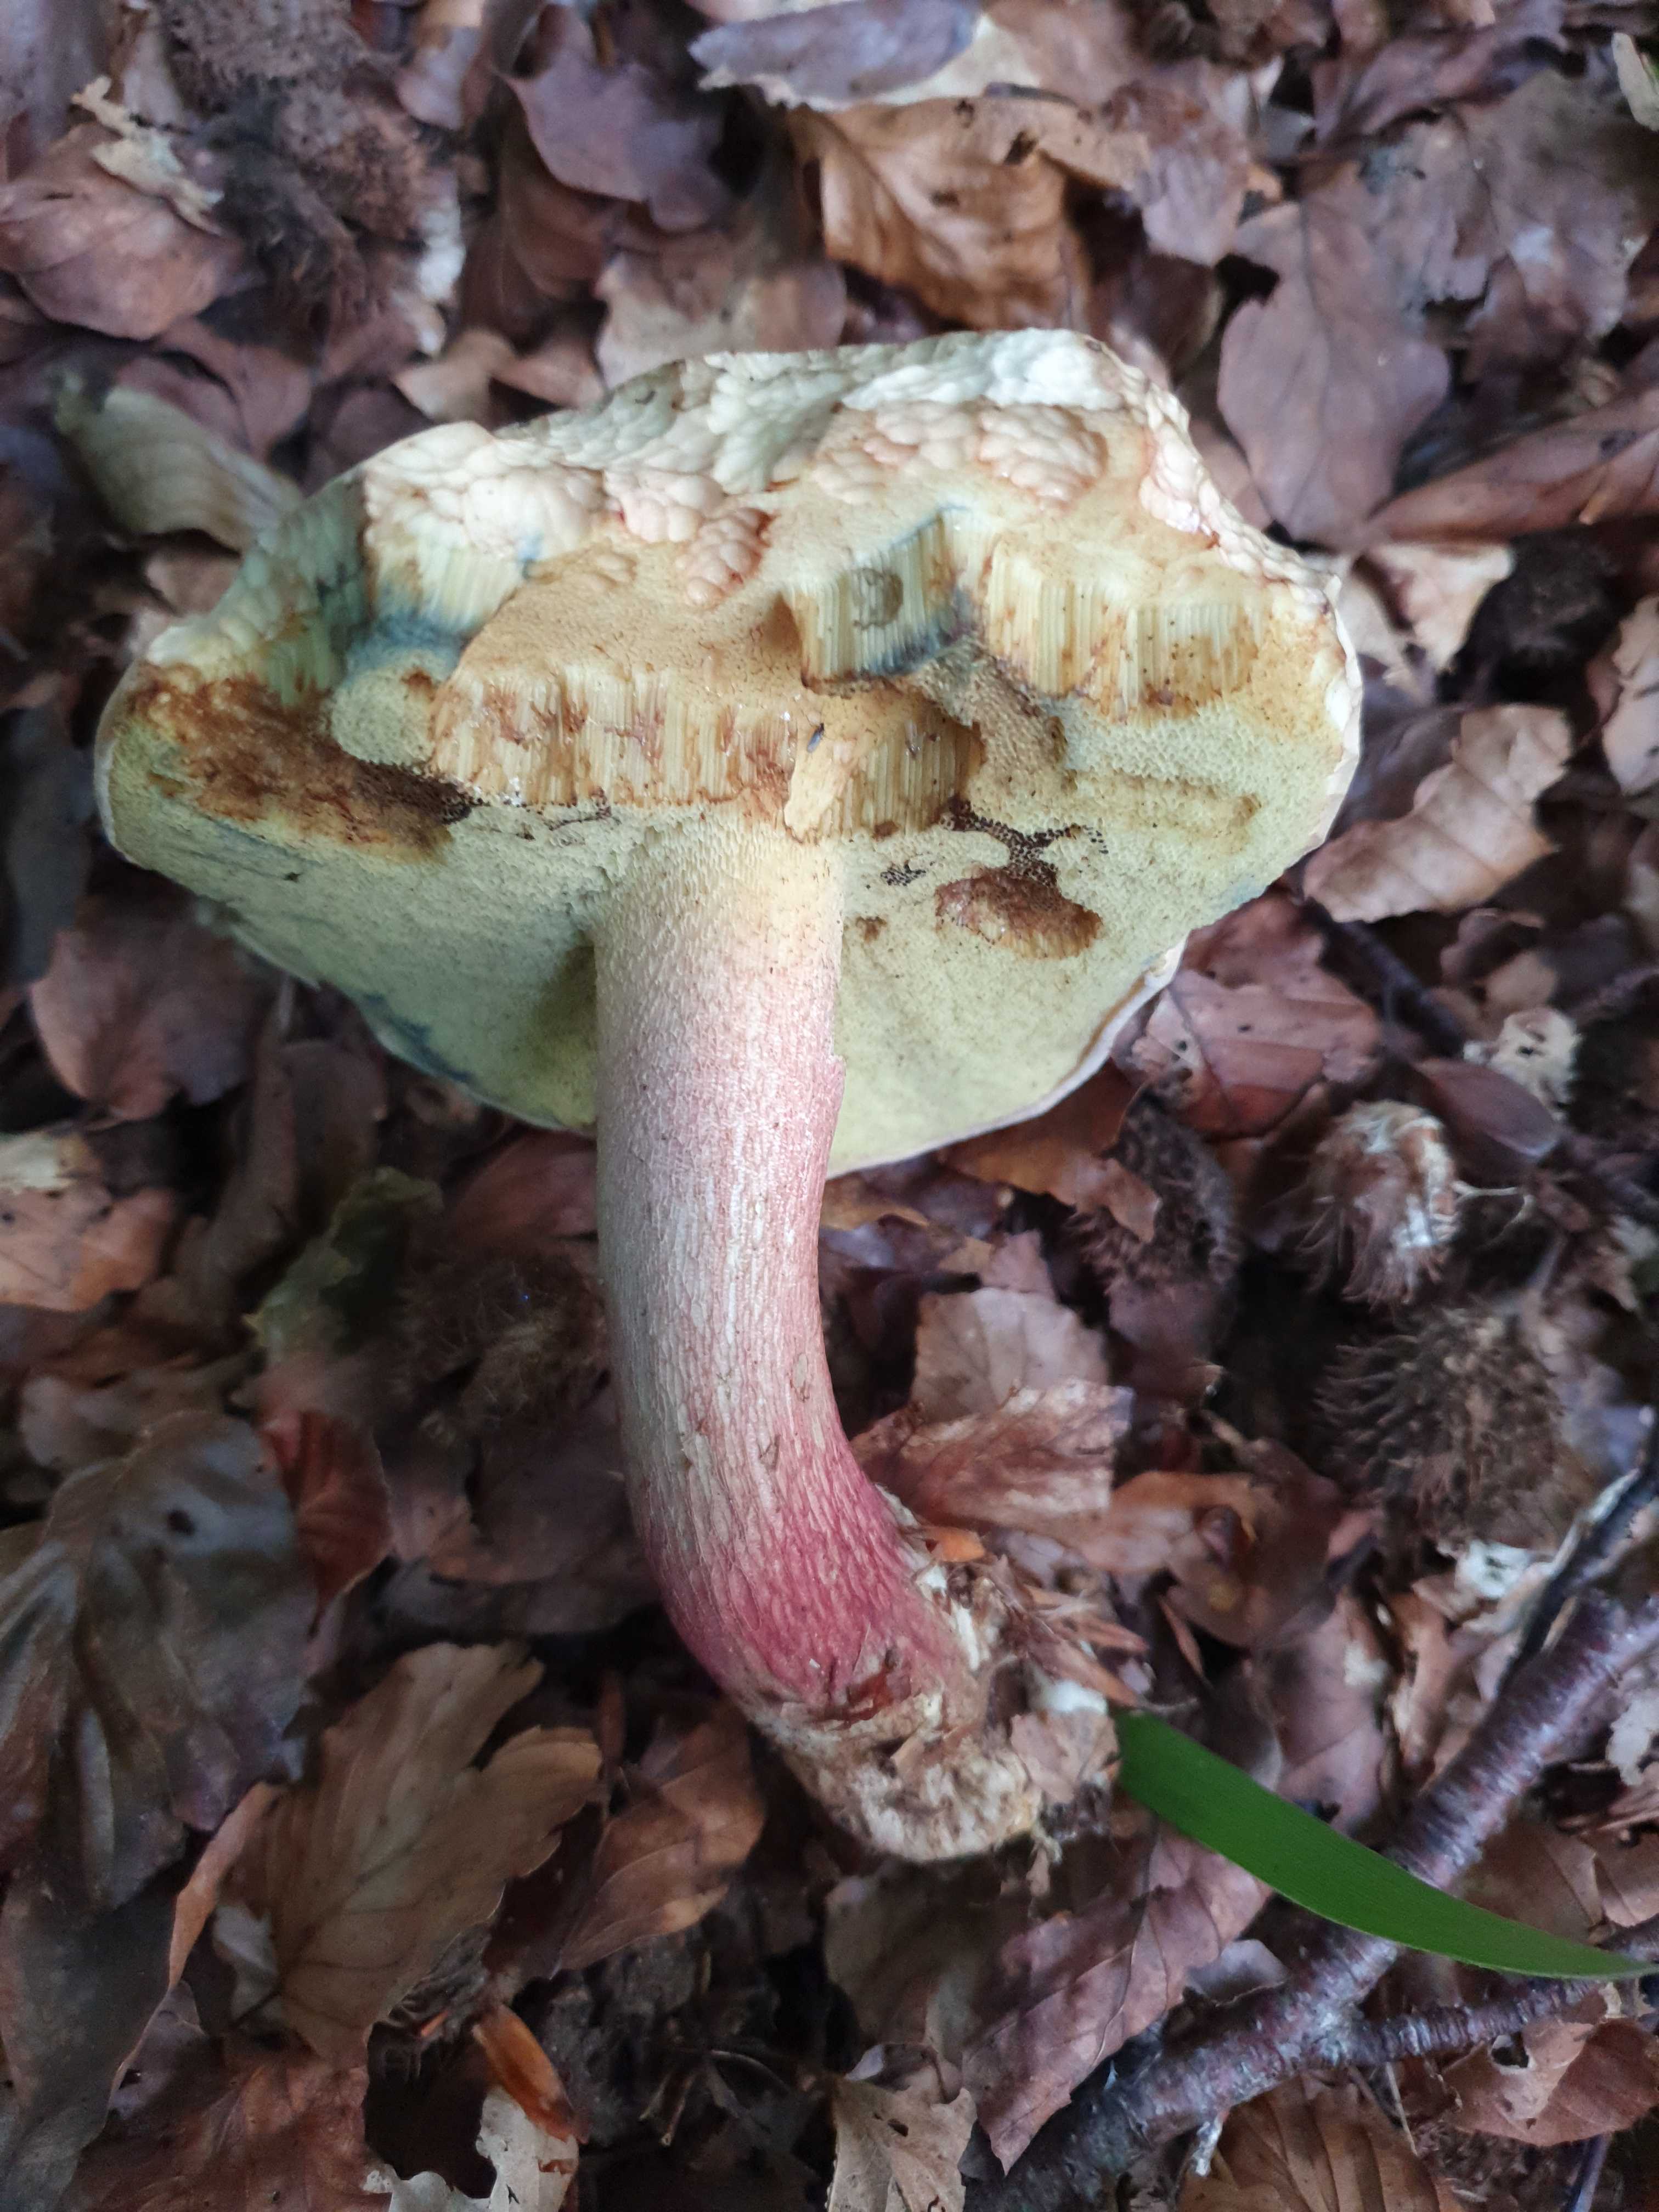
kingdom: Fungi
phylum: Basidiomycota
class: Agaricomycetes
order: Boletales
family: Boletaceae
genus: Caloboletus
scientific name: Caloboletus calopus
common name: skønfodet rørhat
